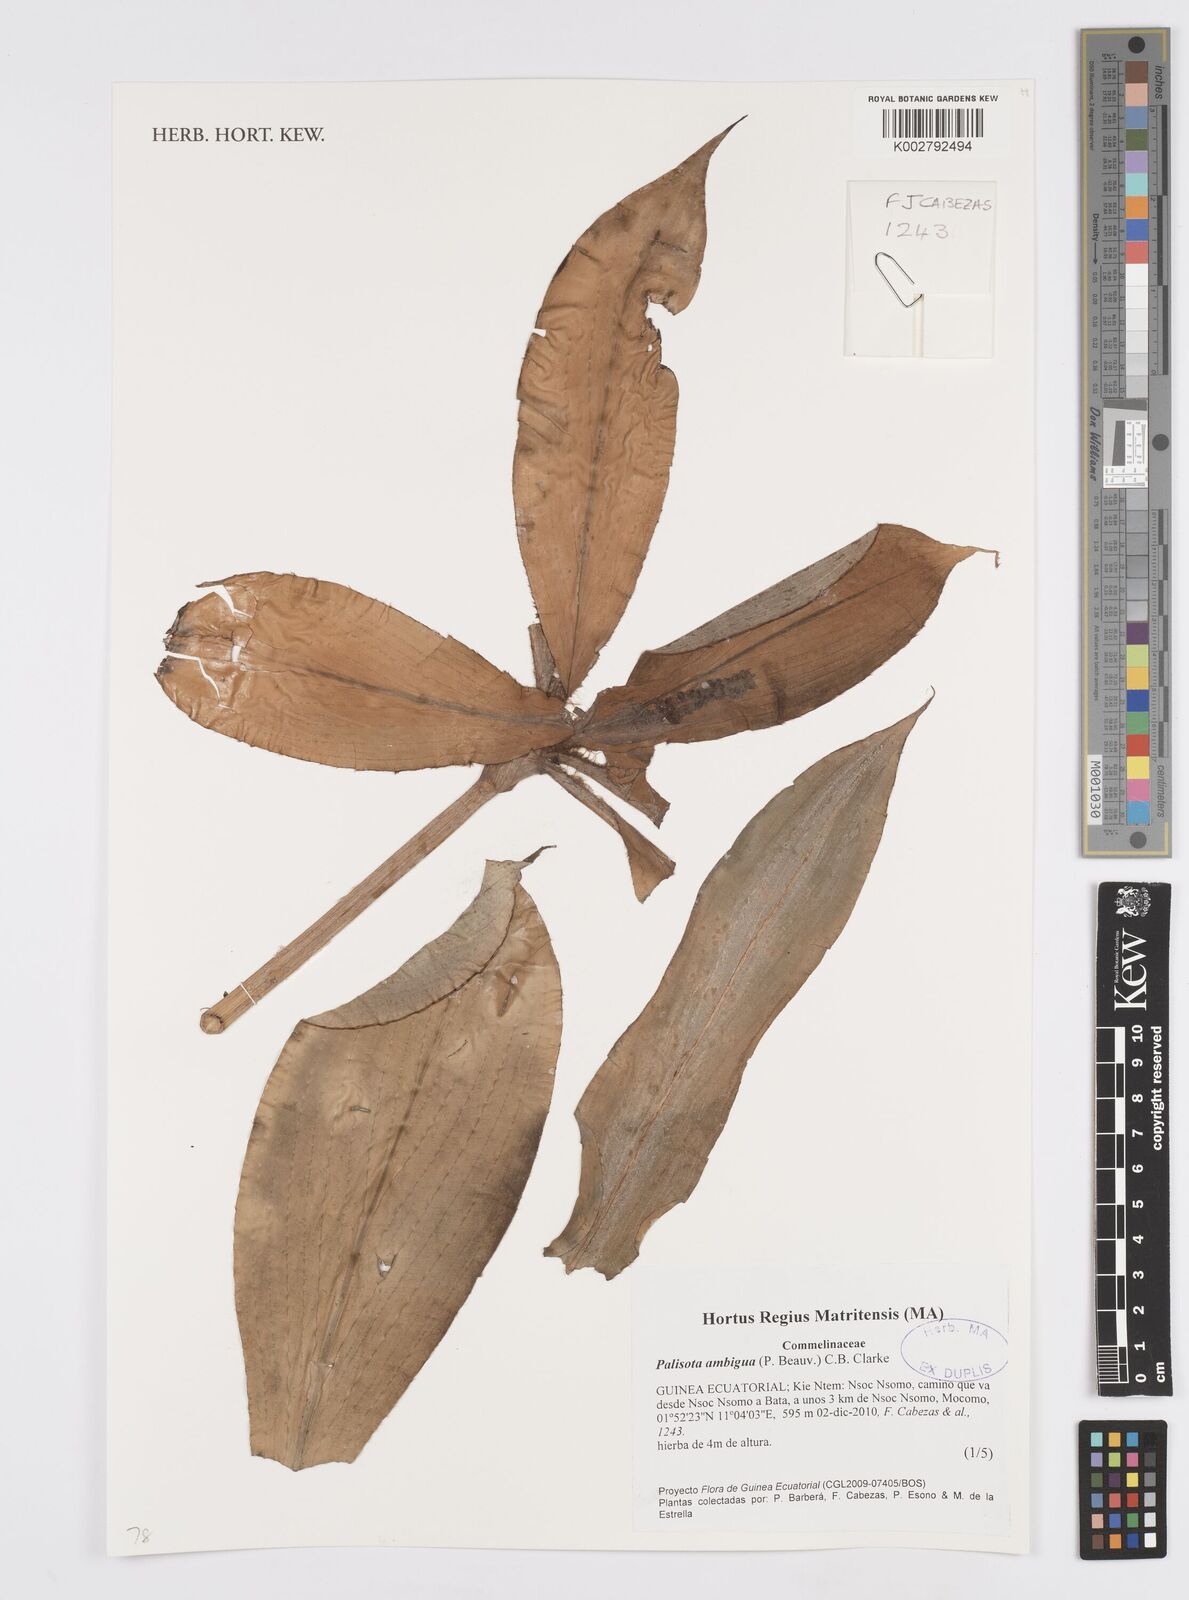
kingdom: Plantae
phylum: Tracheophyta
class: Liliopsida
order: Commelinales
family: Commelinaceae
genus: Palisota
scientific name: Palisota ambigua
